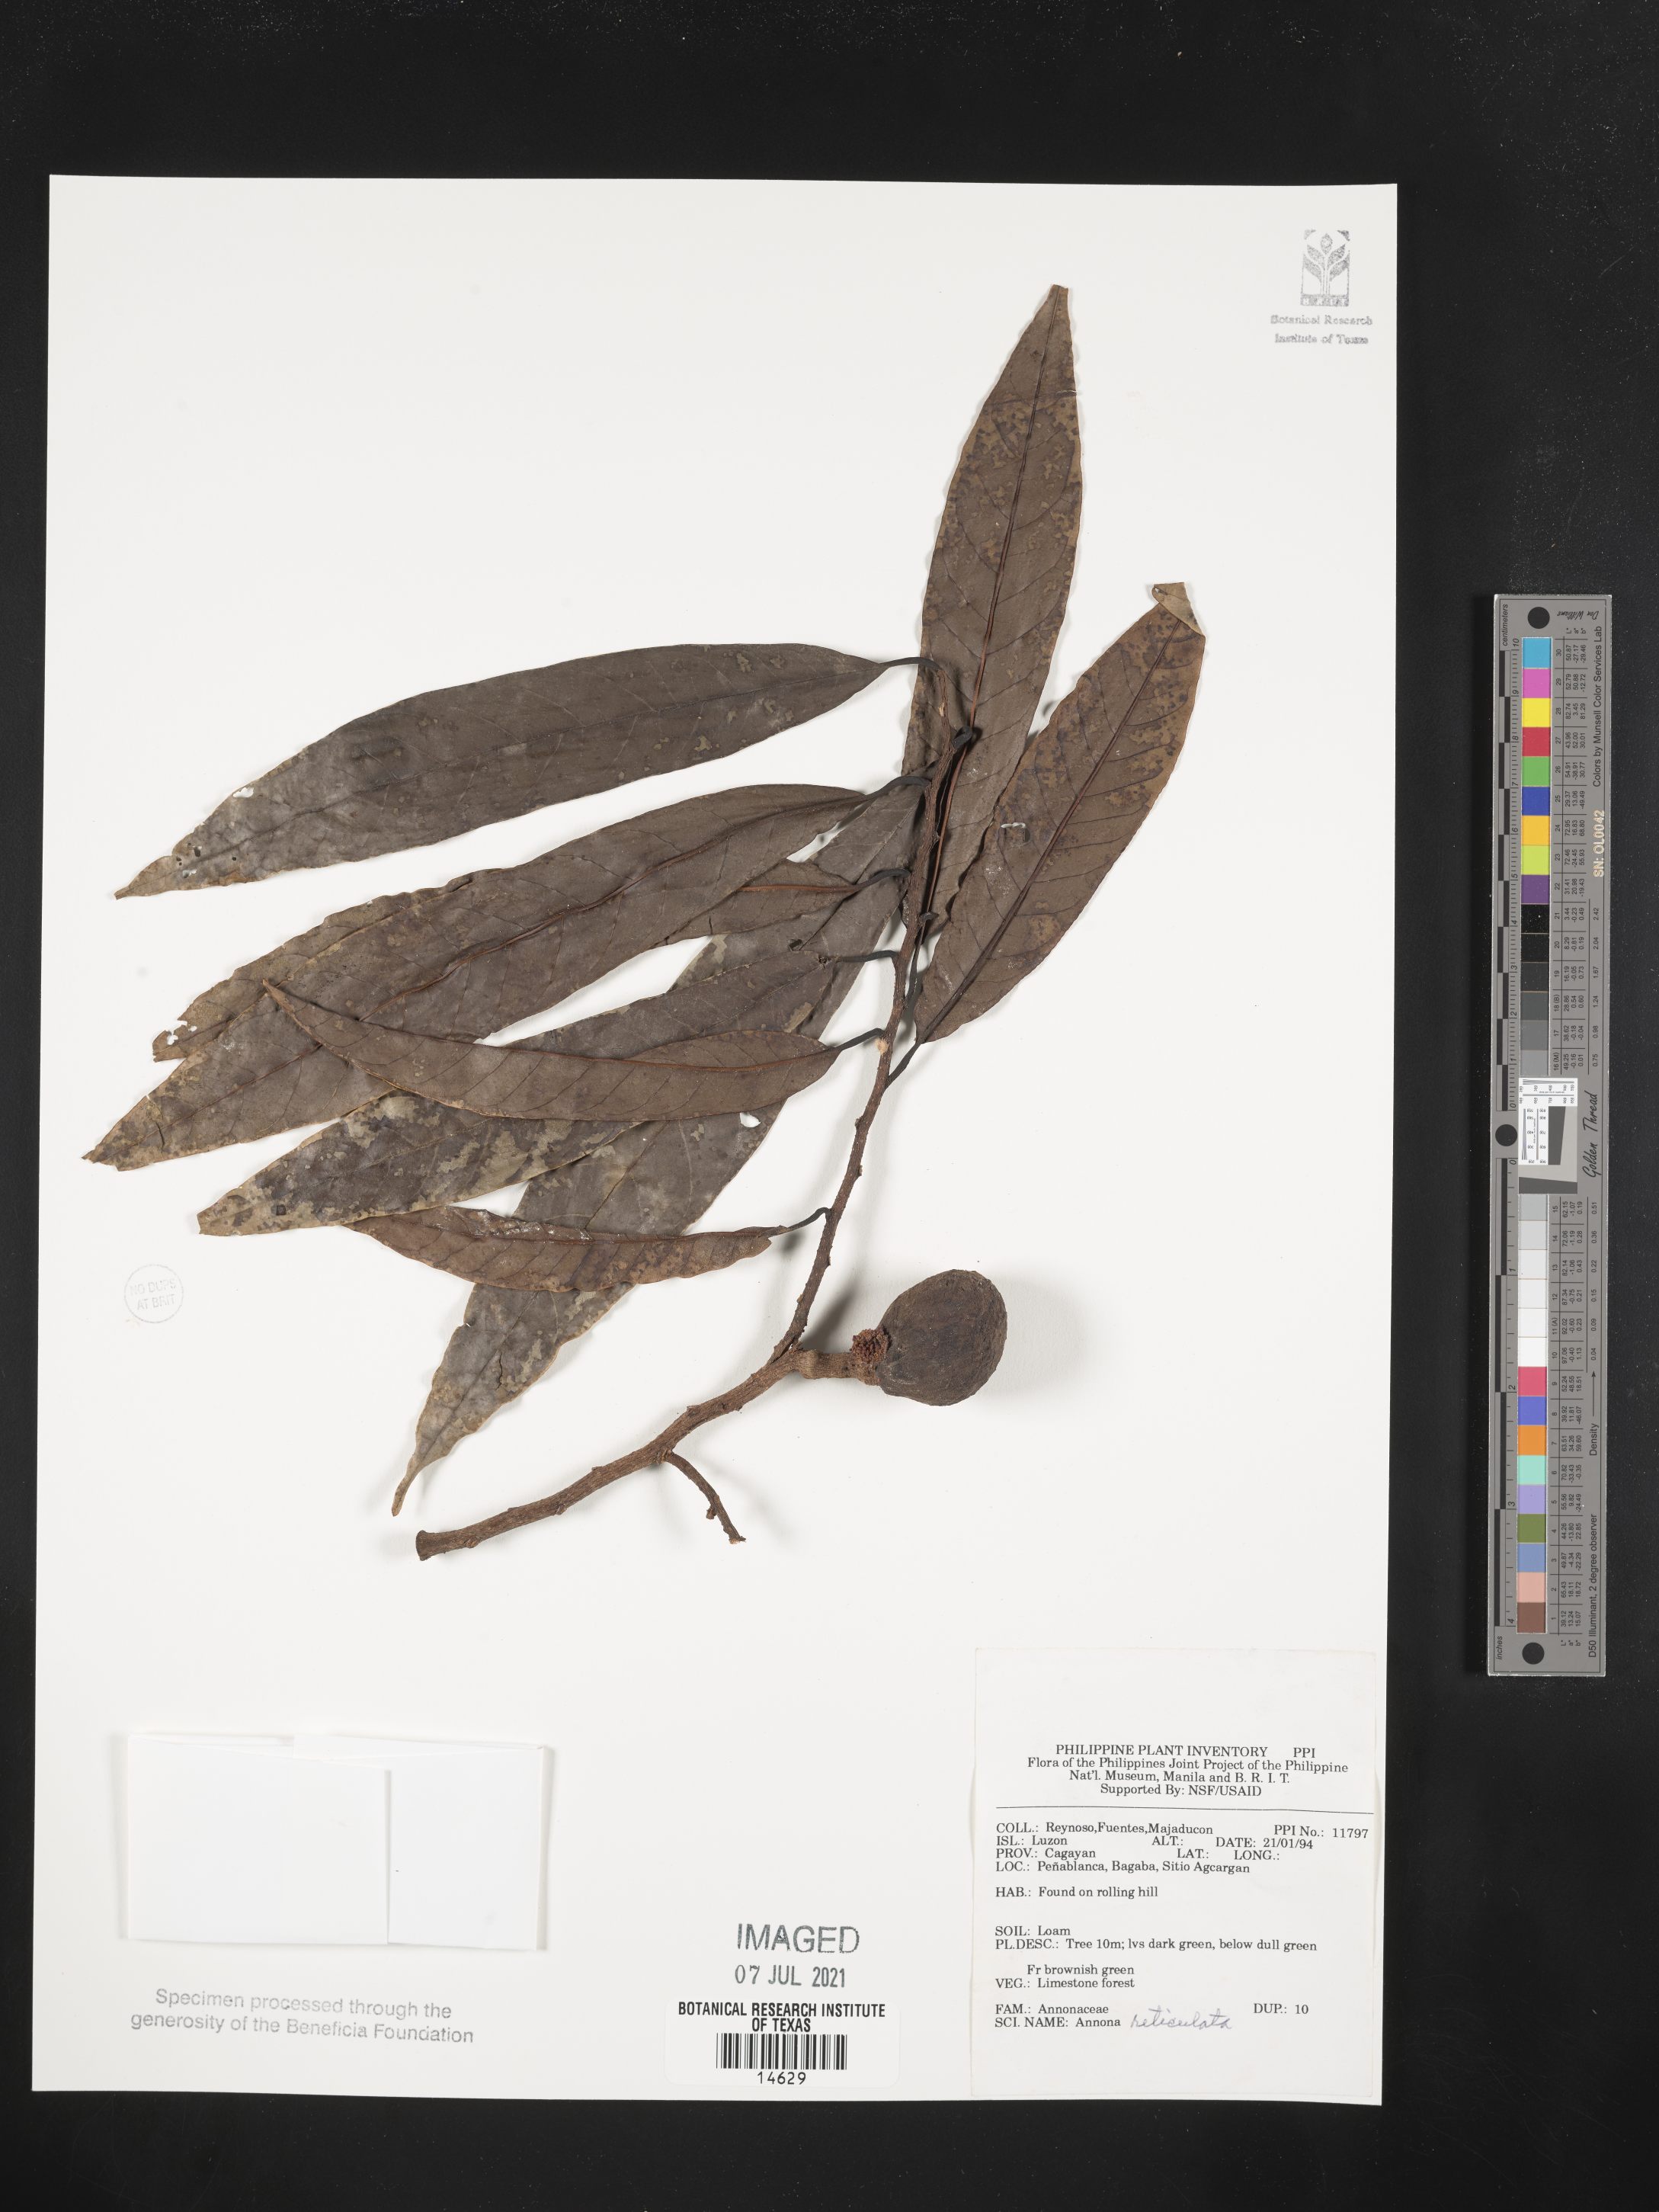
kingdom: Plantae
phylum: Tracheophyta
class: Magnoliopsida
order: Magnoliales
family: Annonaceae
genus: Annona
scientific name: Annona montana
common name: Mountain soursop
